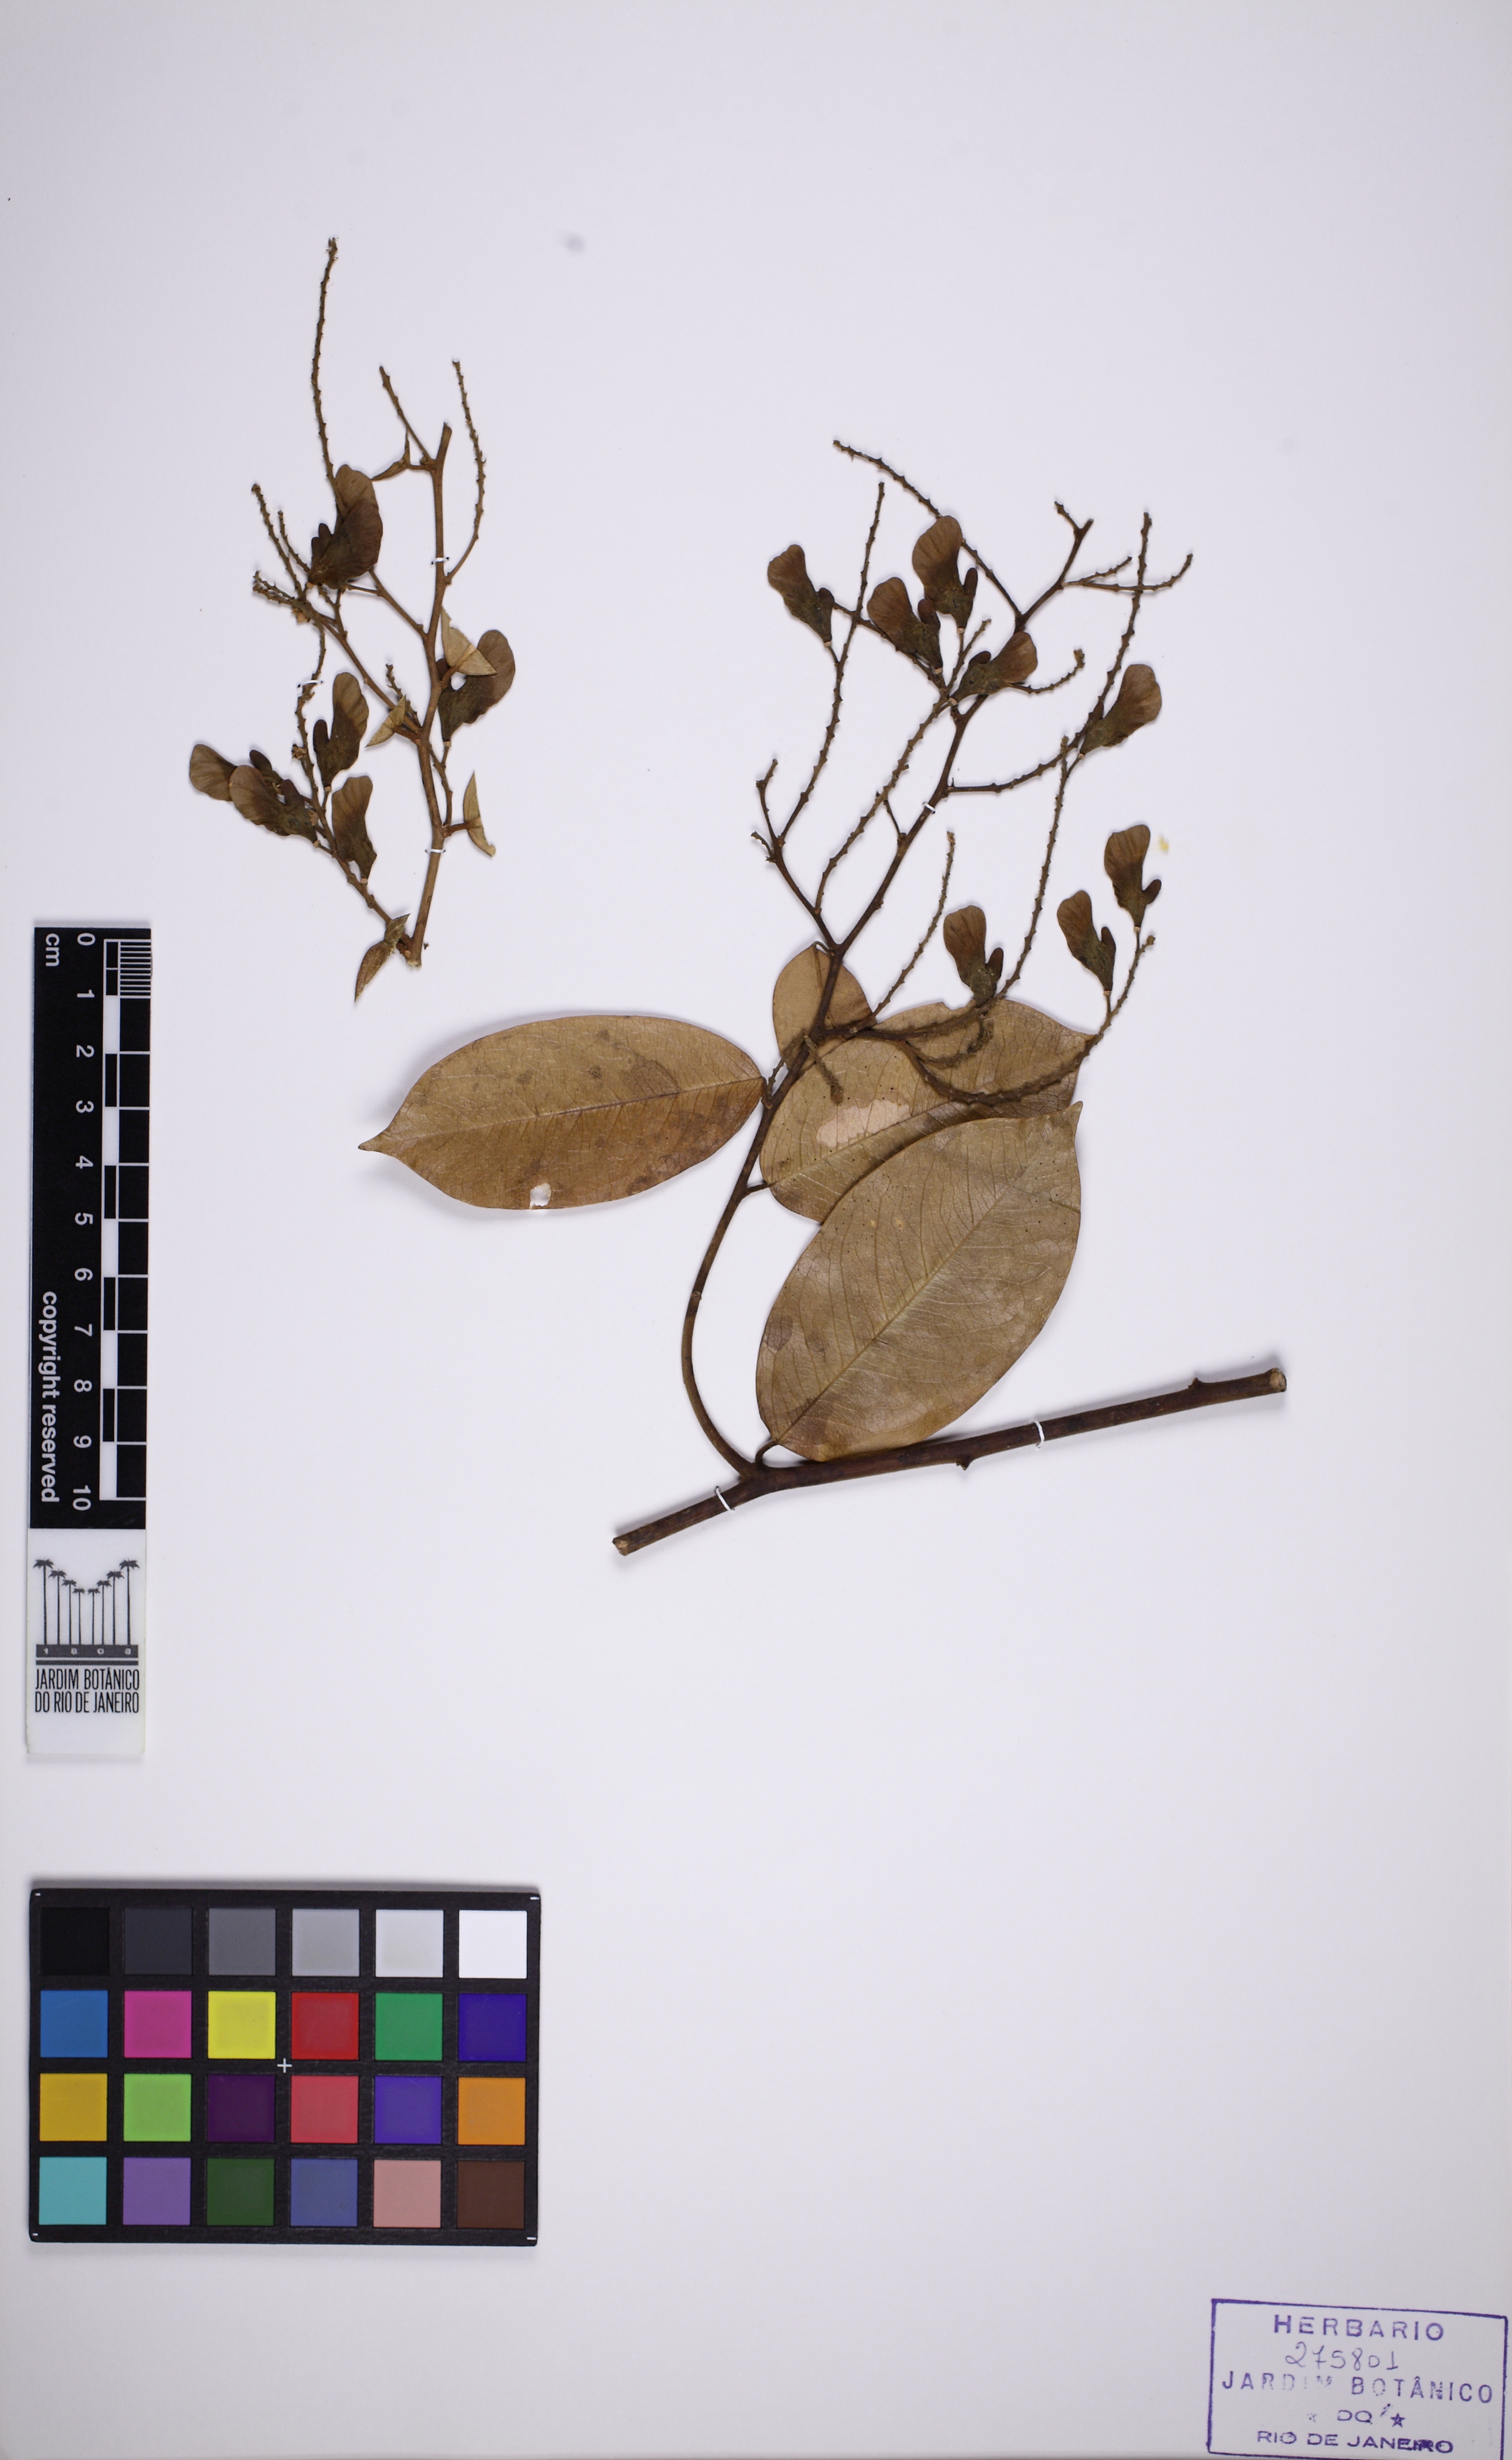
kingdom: Plantae
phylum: Tracheophyta
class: Magnoliopsida
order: Fabales
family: Polygalaceae
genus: Securidaca
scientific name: Securidaca paniculata
